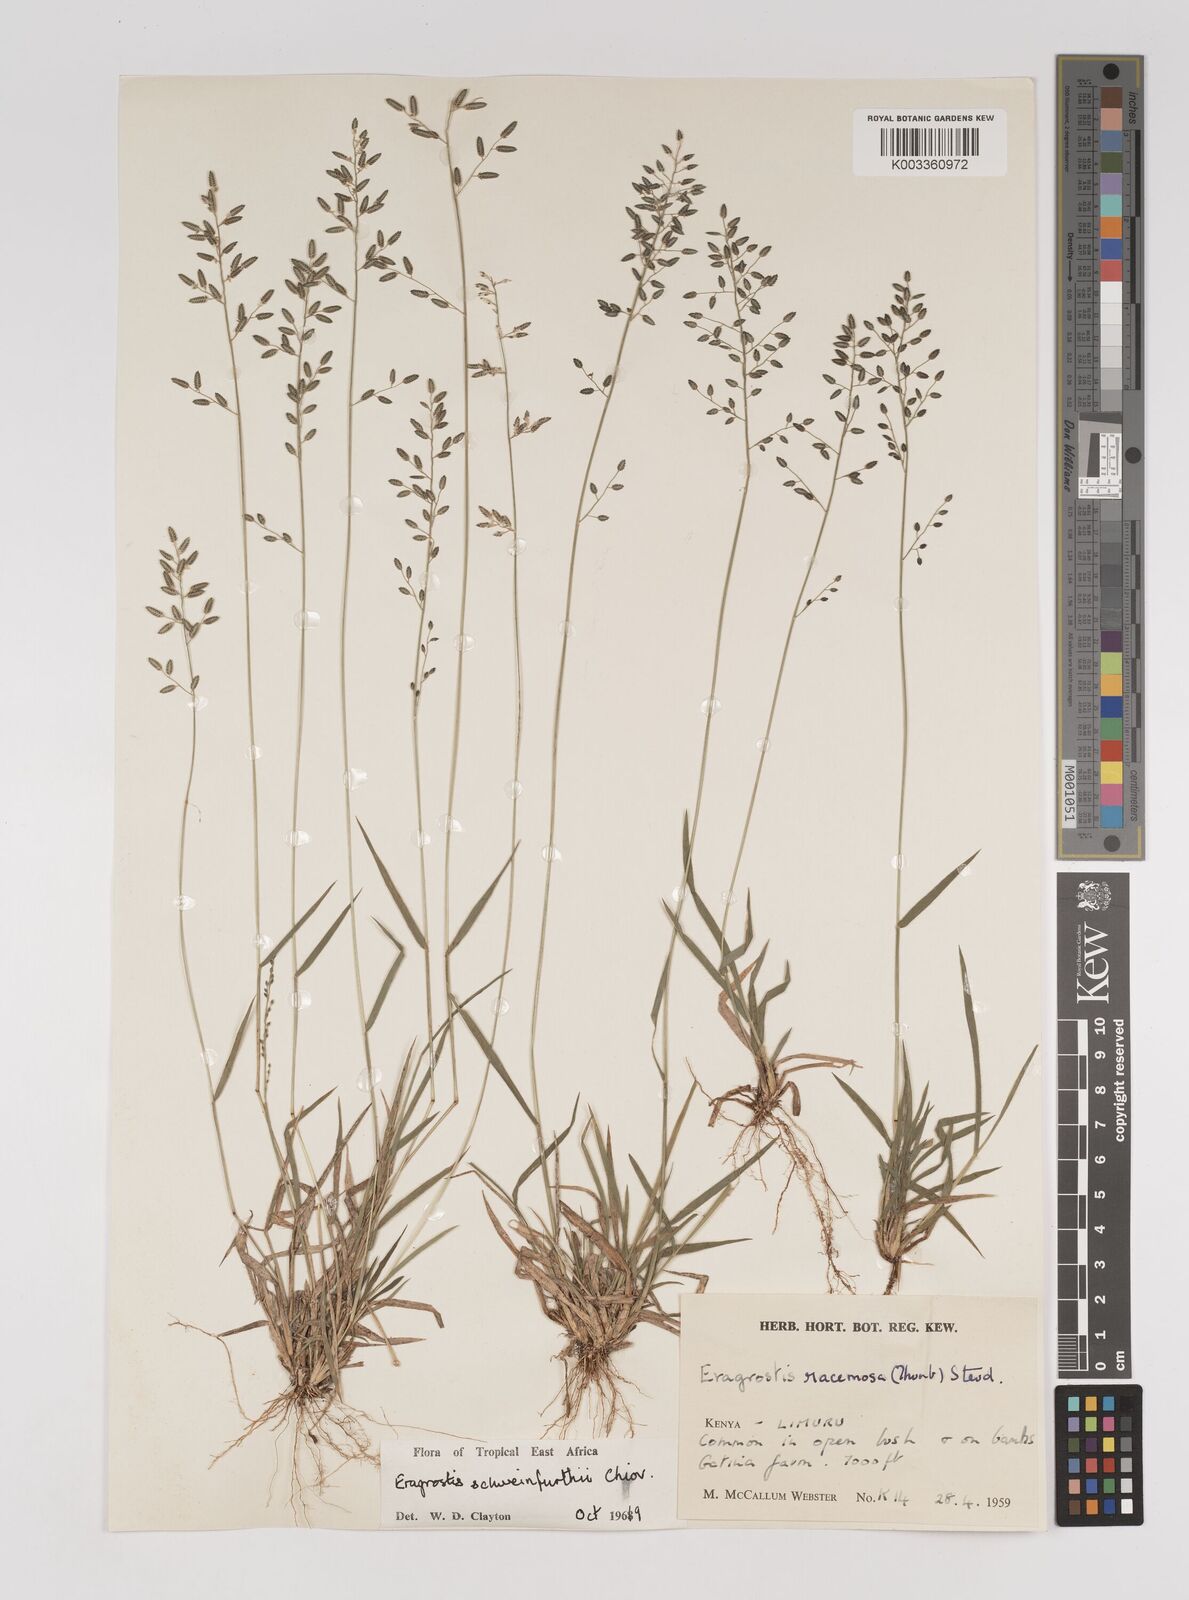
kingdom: Plantae
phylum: Tracheophyta
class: Liliopsida
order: Poales
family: Poaceae
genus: Eragrostis
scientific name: Eragrostis schweinfurthii
